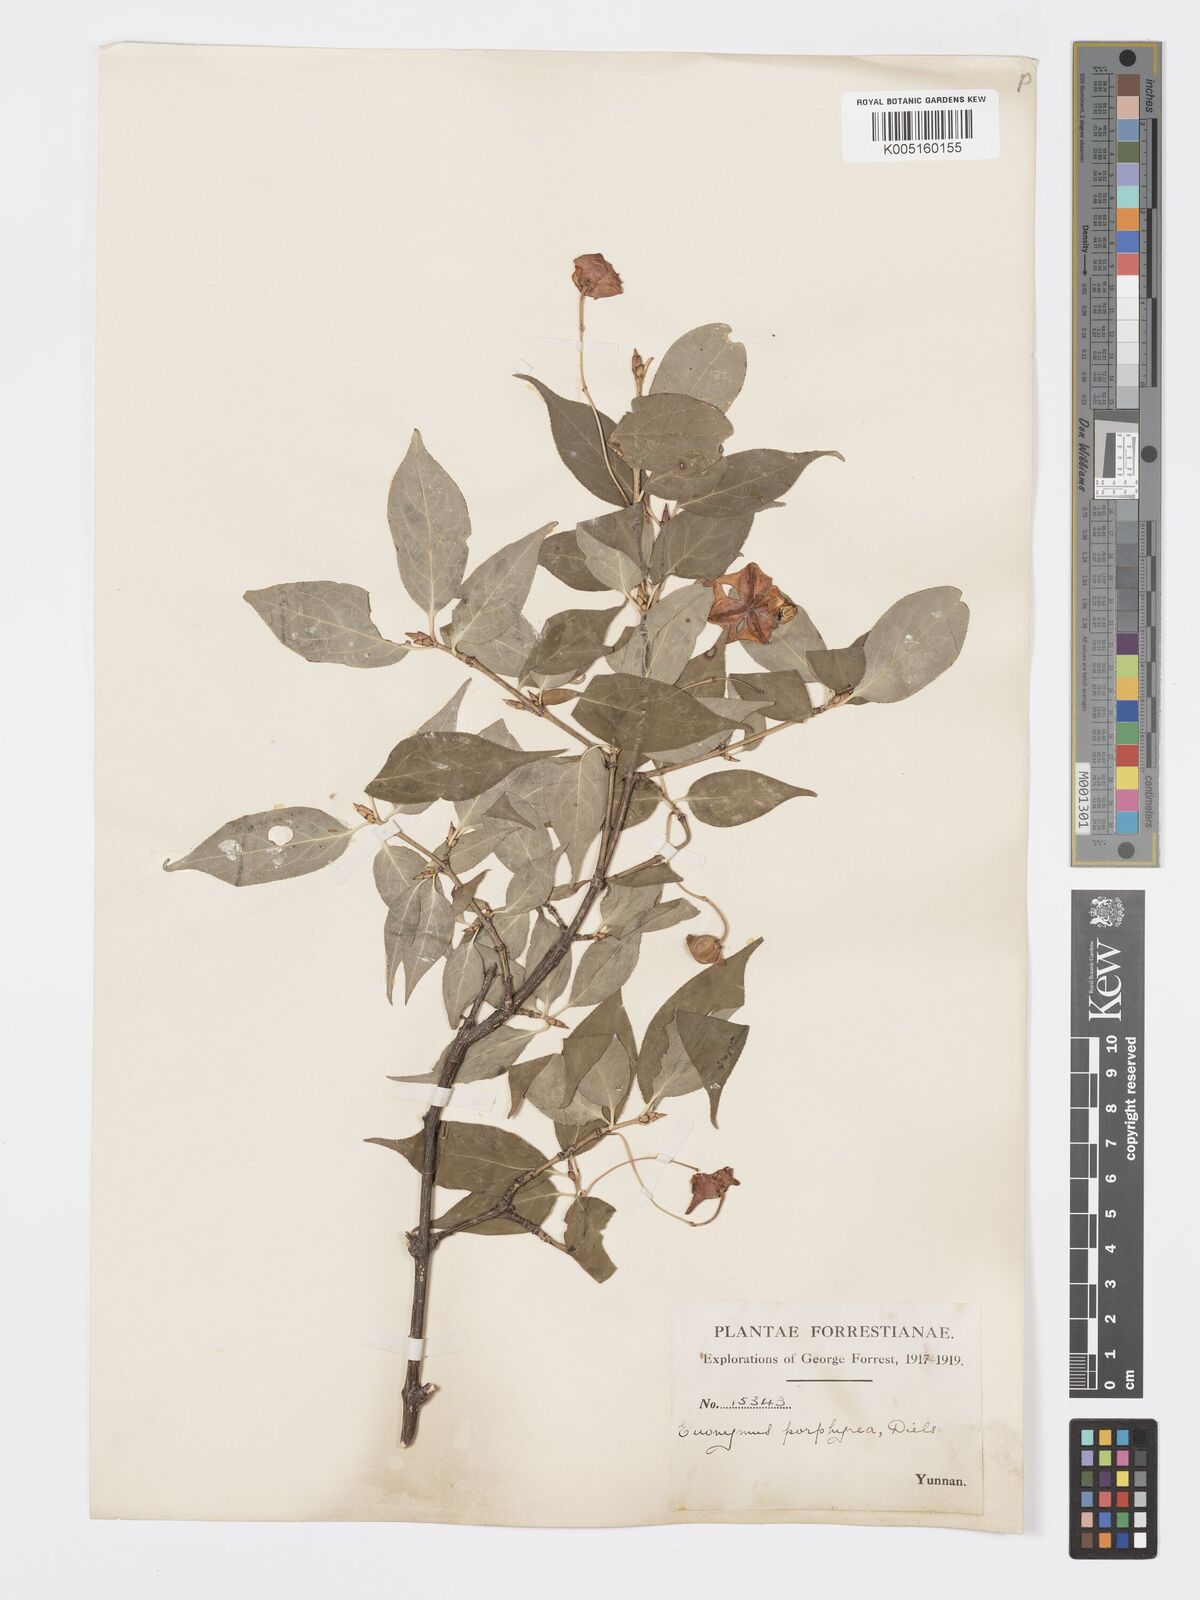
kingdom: Plantae
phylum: Tracheophyta
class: Magnoliopsida
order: Celastrales
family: Celastraceae
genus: Euonymus
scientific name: Euonymus frigidus
